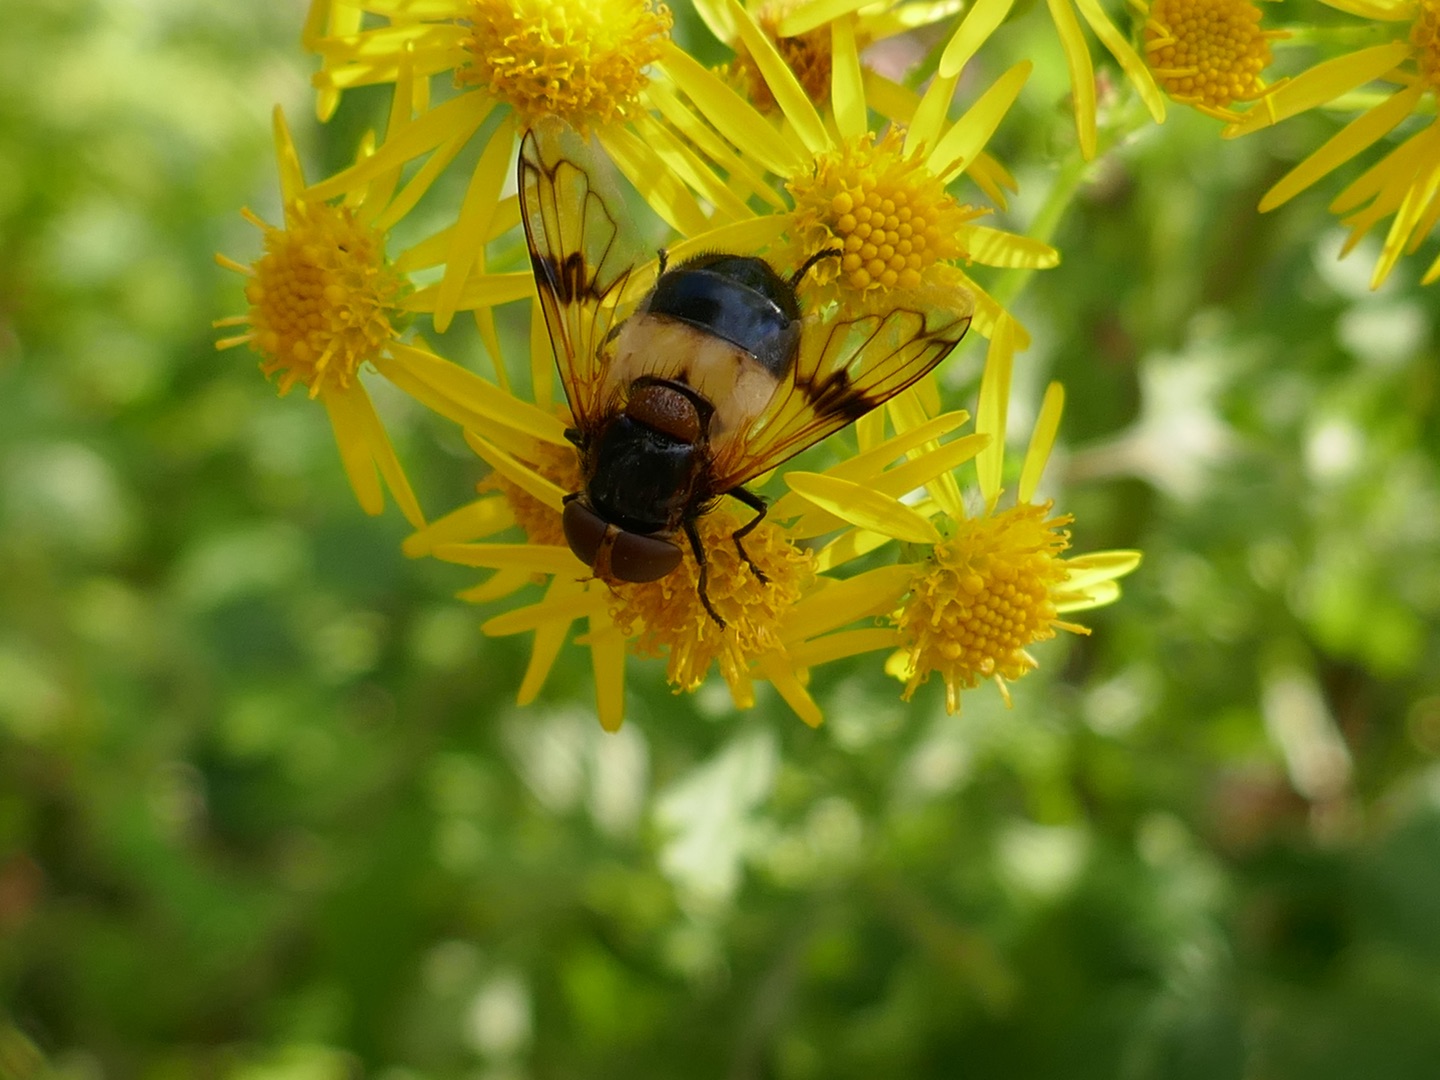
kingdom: Animalia
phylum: Arthropoda
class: Insecta
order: Diptera
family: Syrphidae
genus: Volucella
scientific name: Volucella pellucens
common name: Hvidbåndet humlesvirreflue
